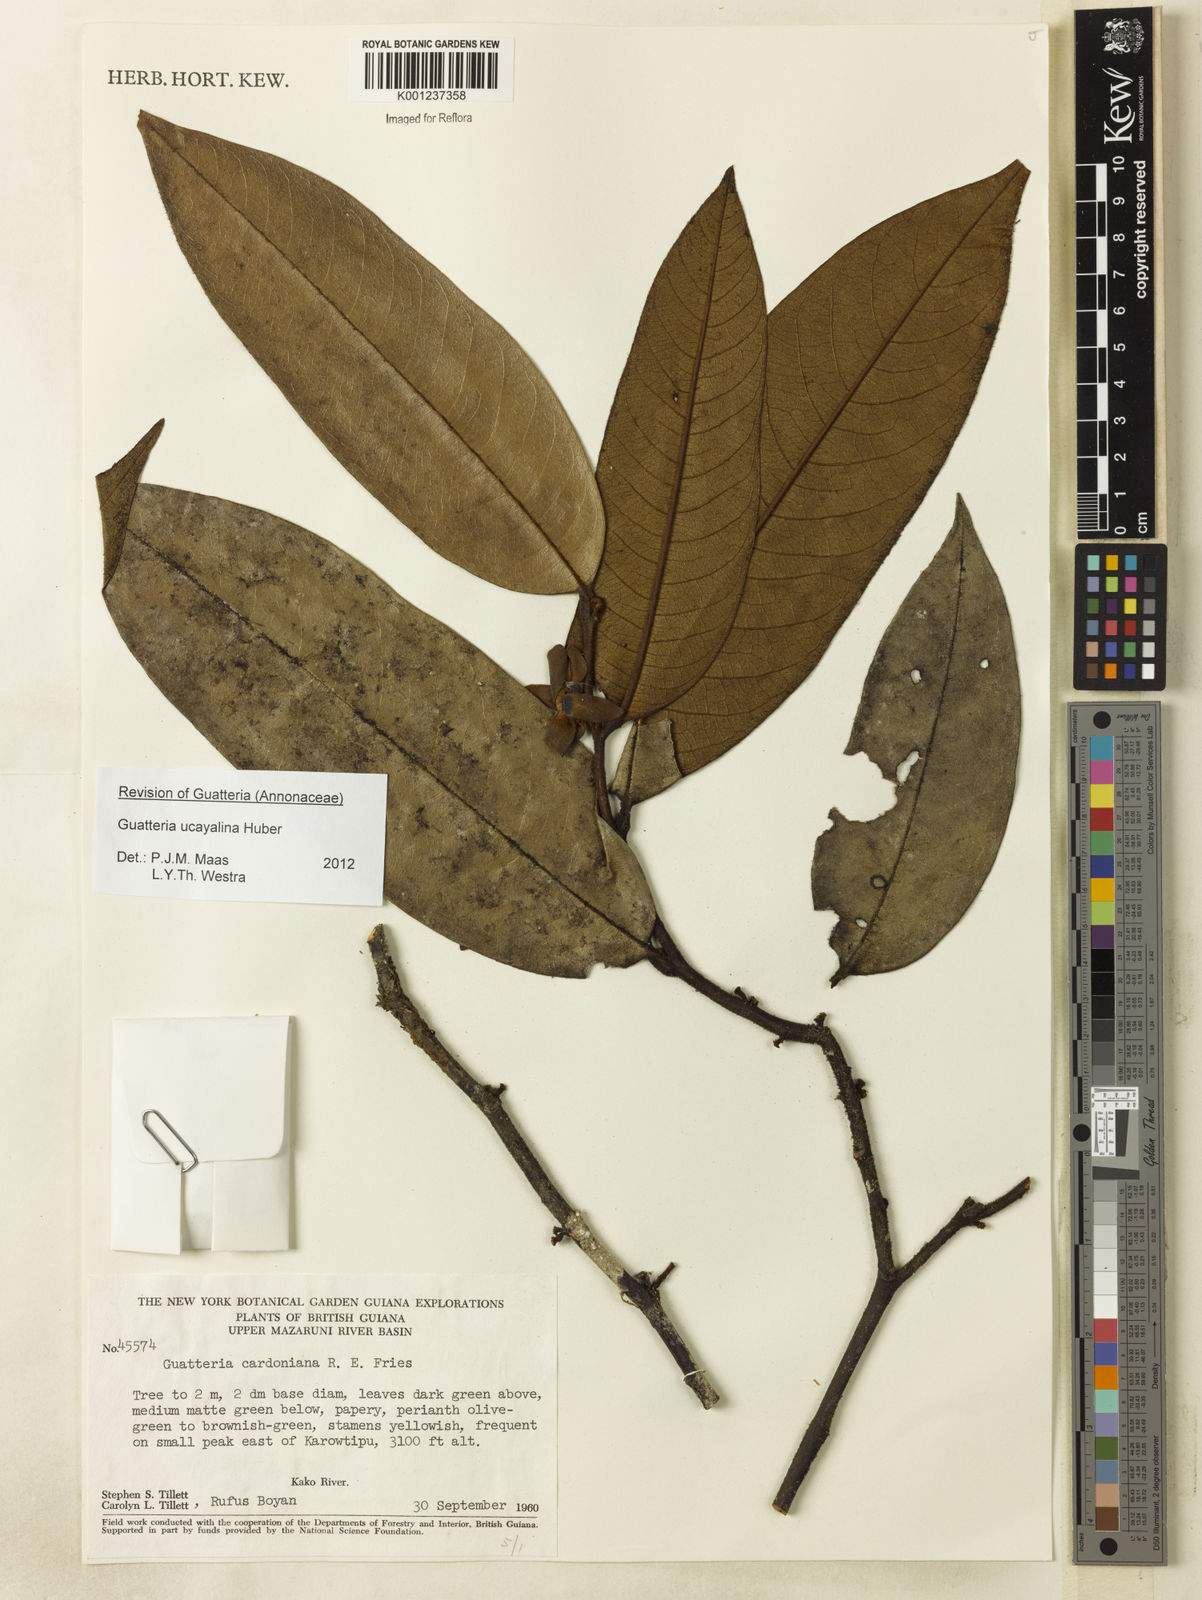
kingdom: Plantae
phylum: Tracheophyta
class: Magnoliopsida
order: Magnoliales
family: Annonaceae
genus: Guatteria
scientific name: Guatteria blepharophylla
